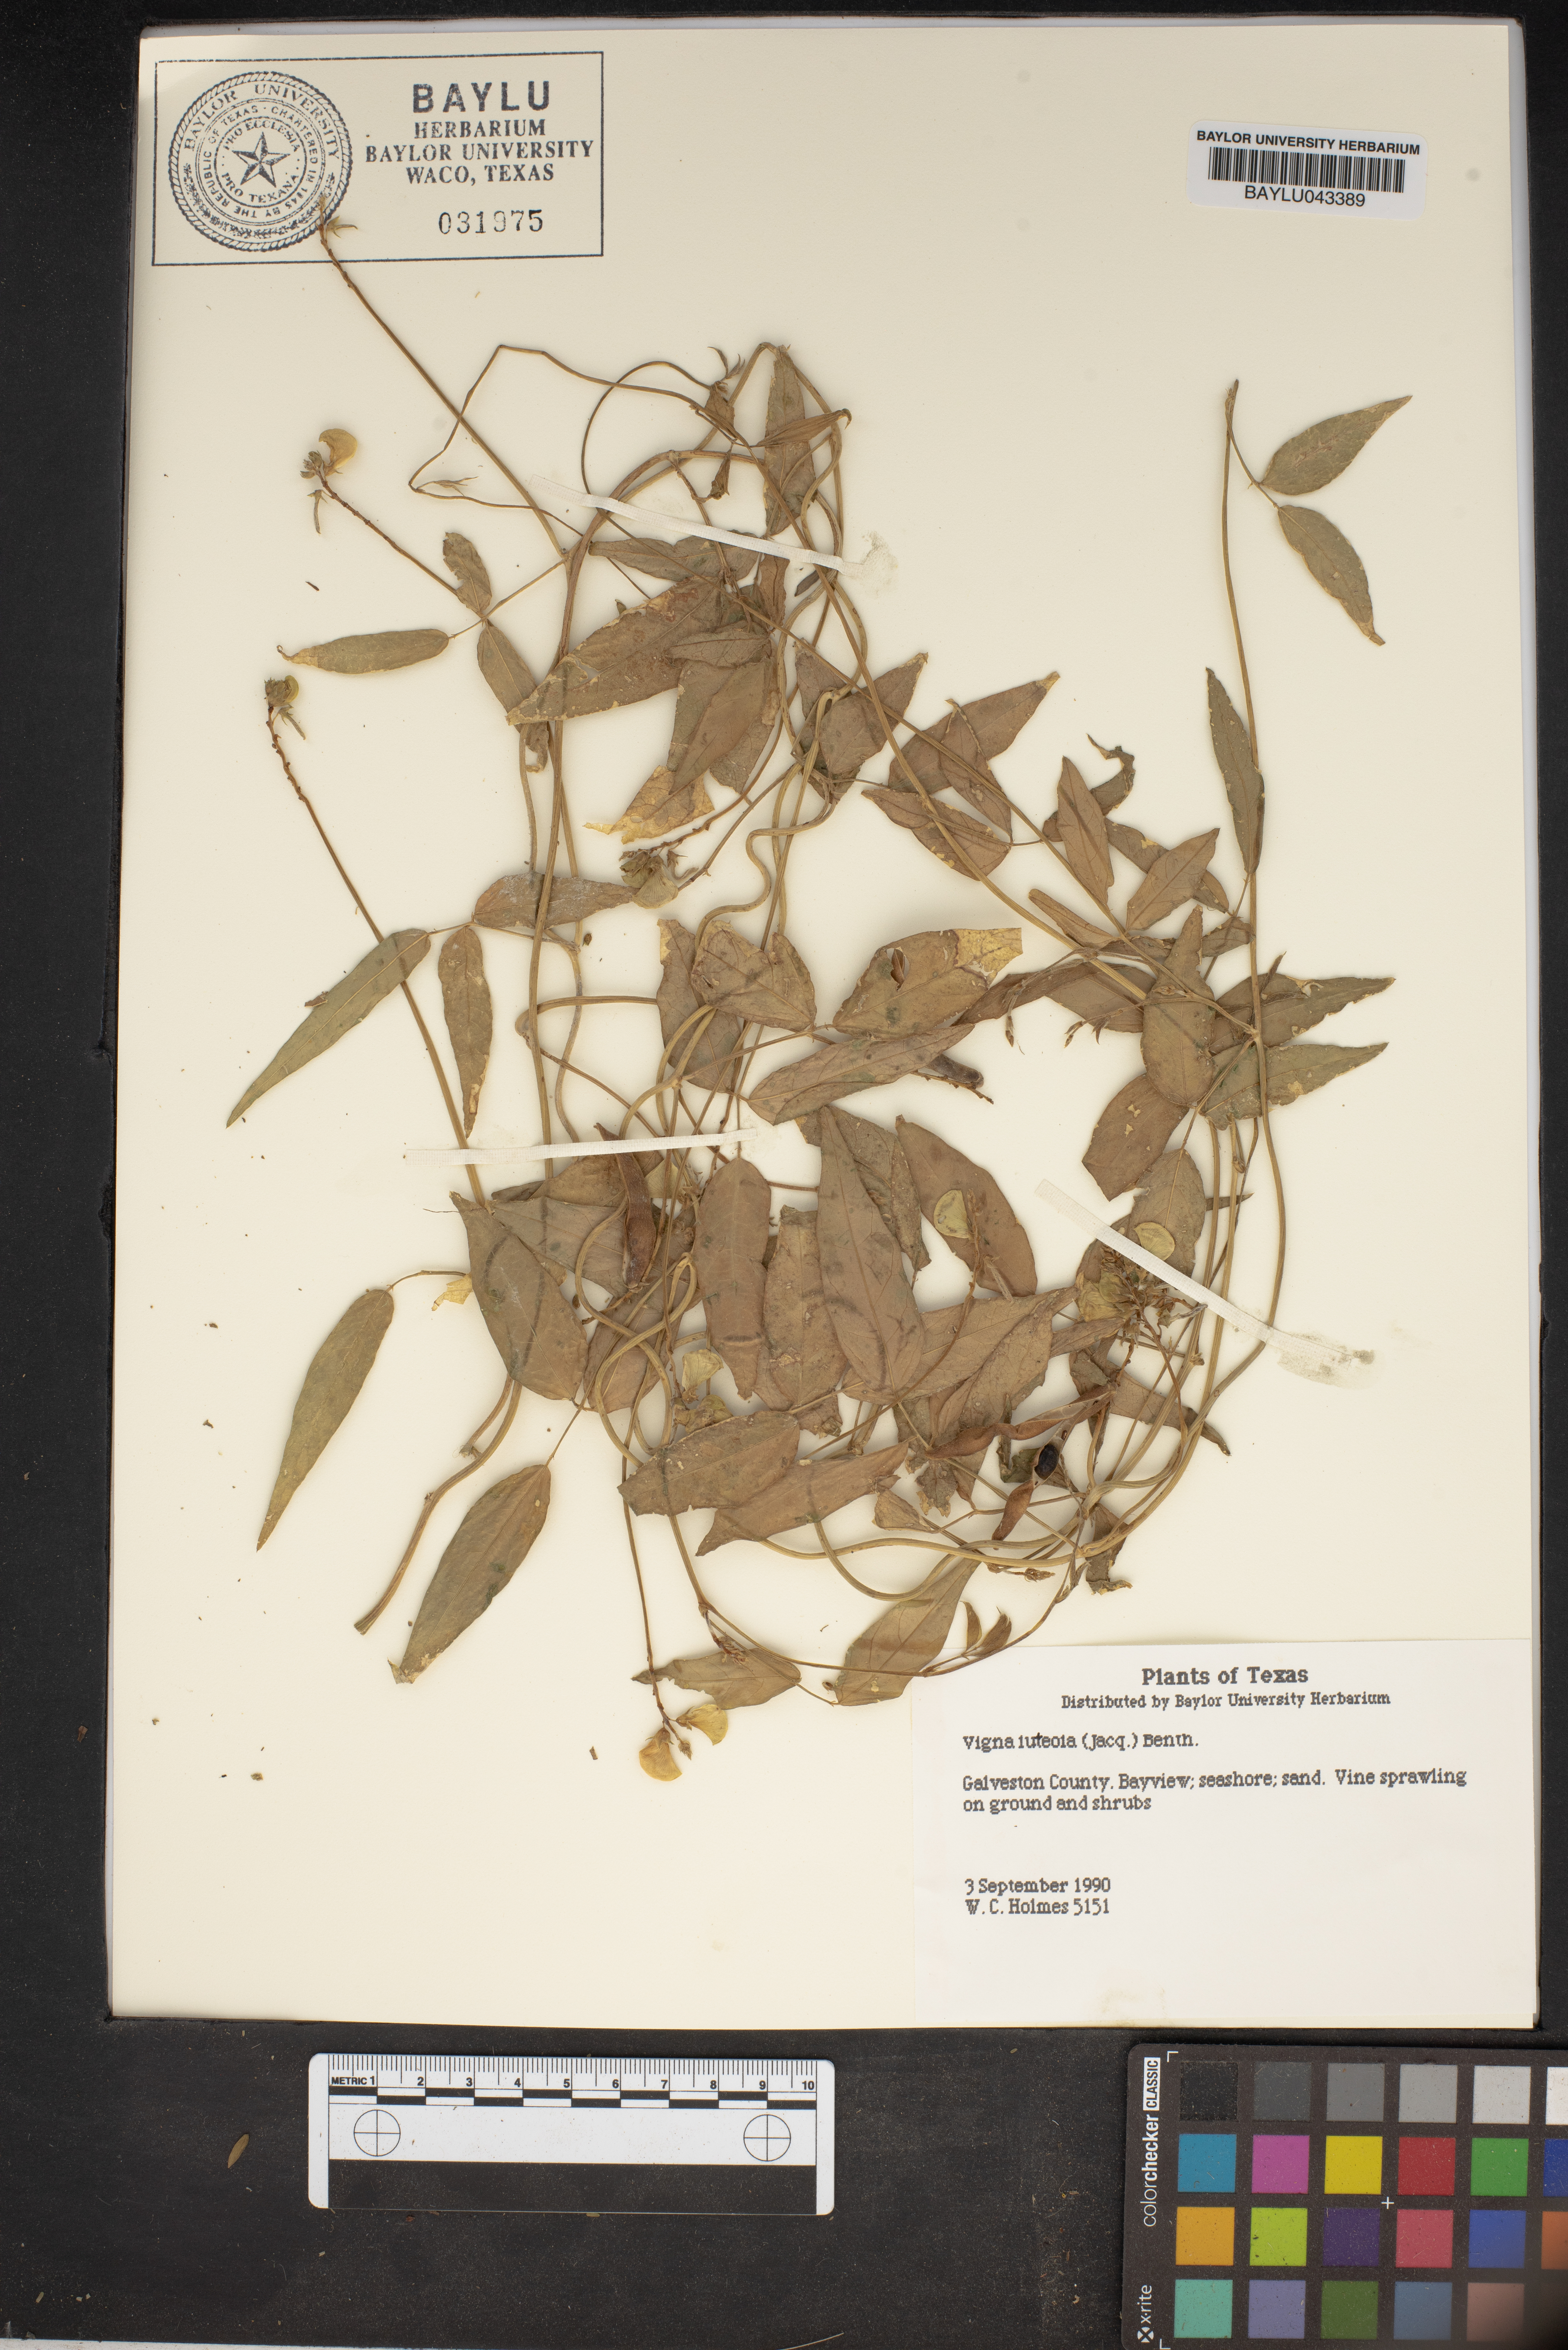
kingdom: Plantae
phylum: Tracheophyta
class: Magnoliopsida
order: Fabales
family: Fabaceae
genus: Vigna
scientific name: Vigna luteola
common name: Hairypod cowpea
